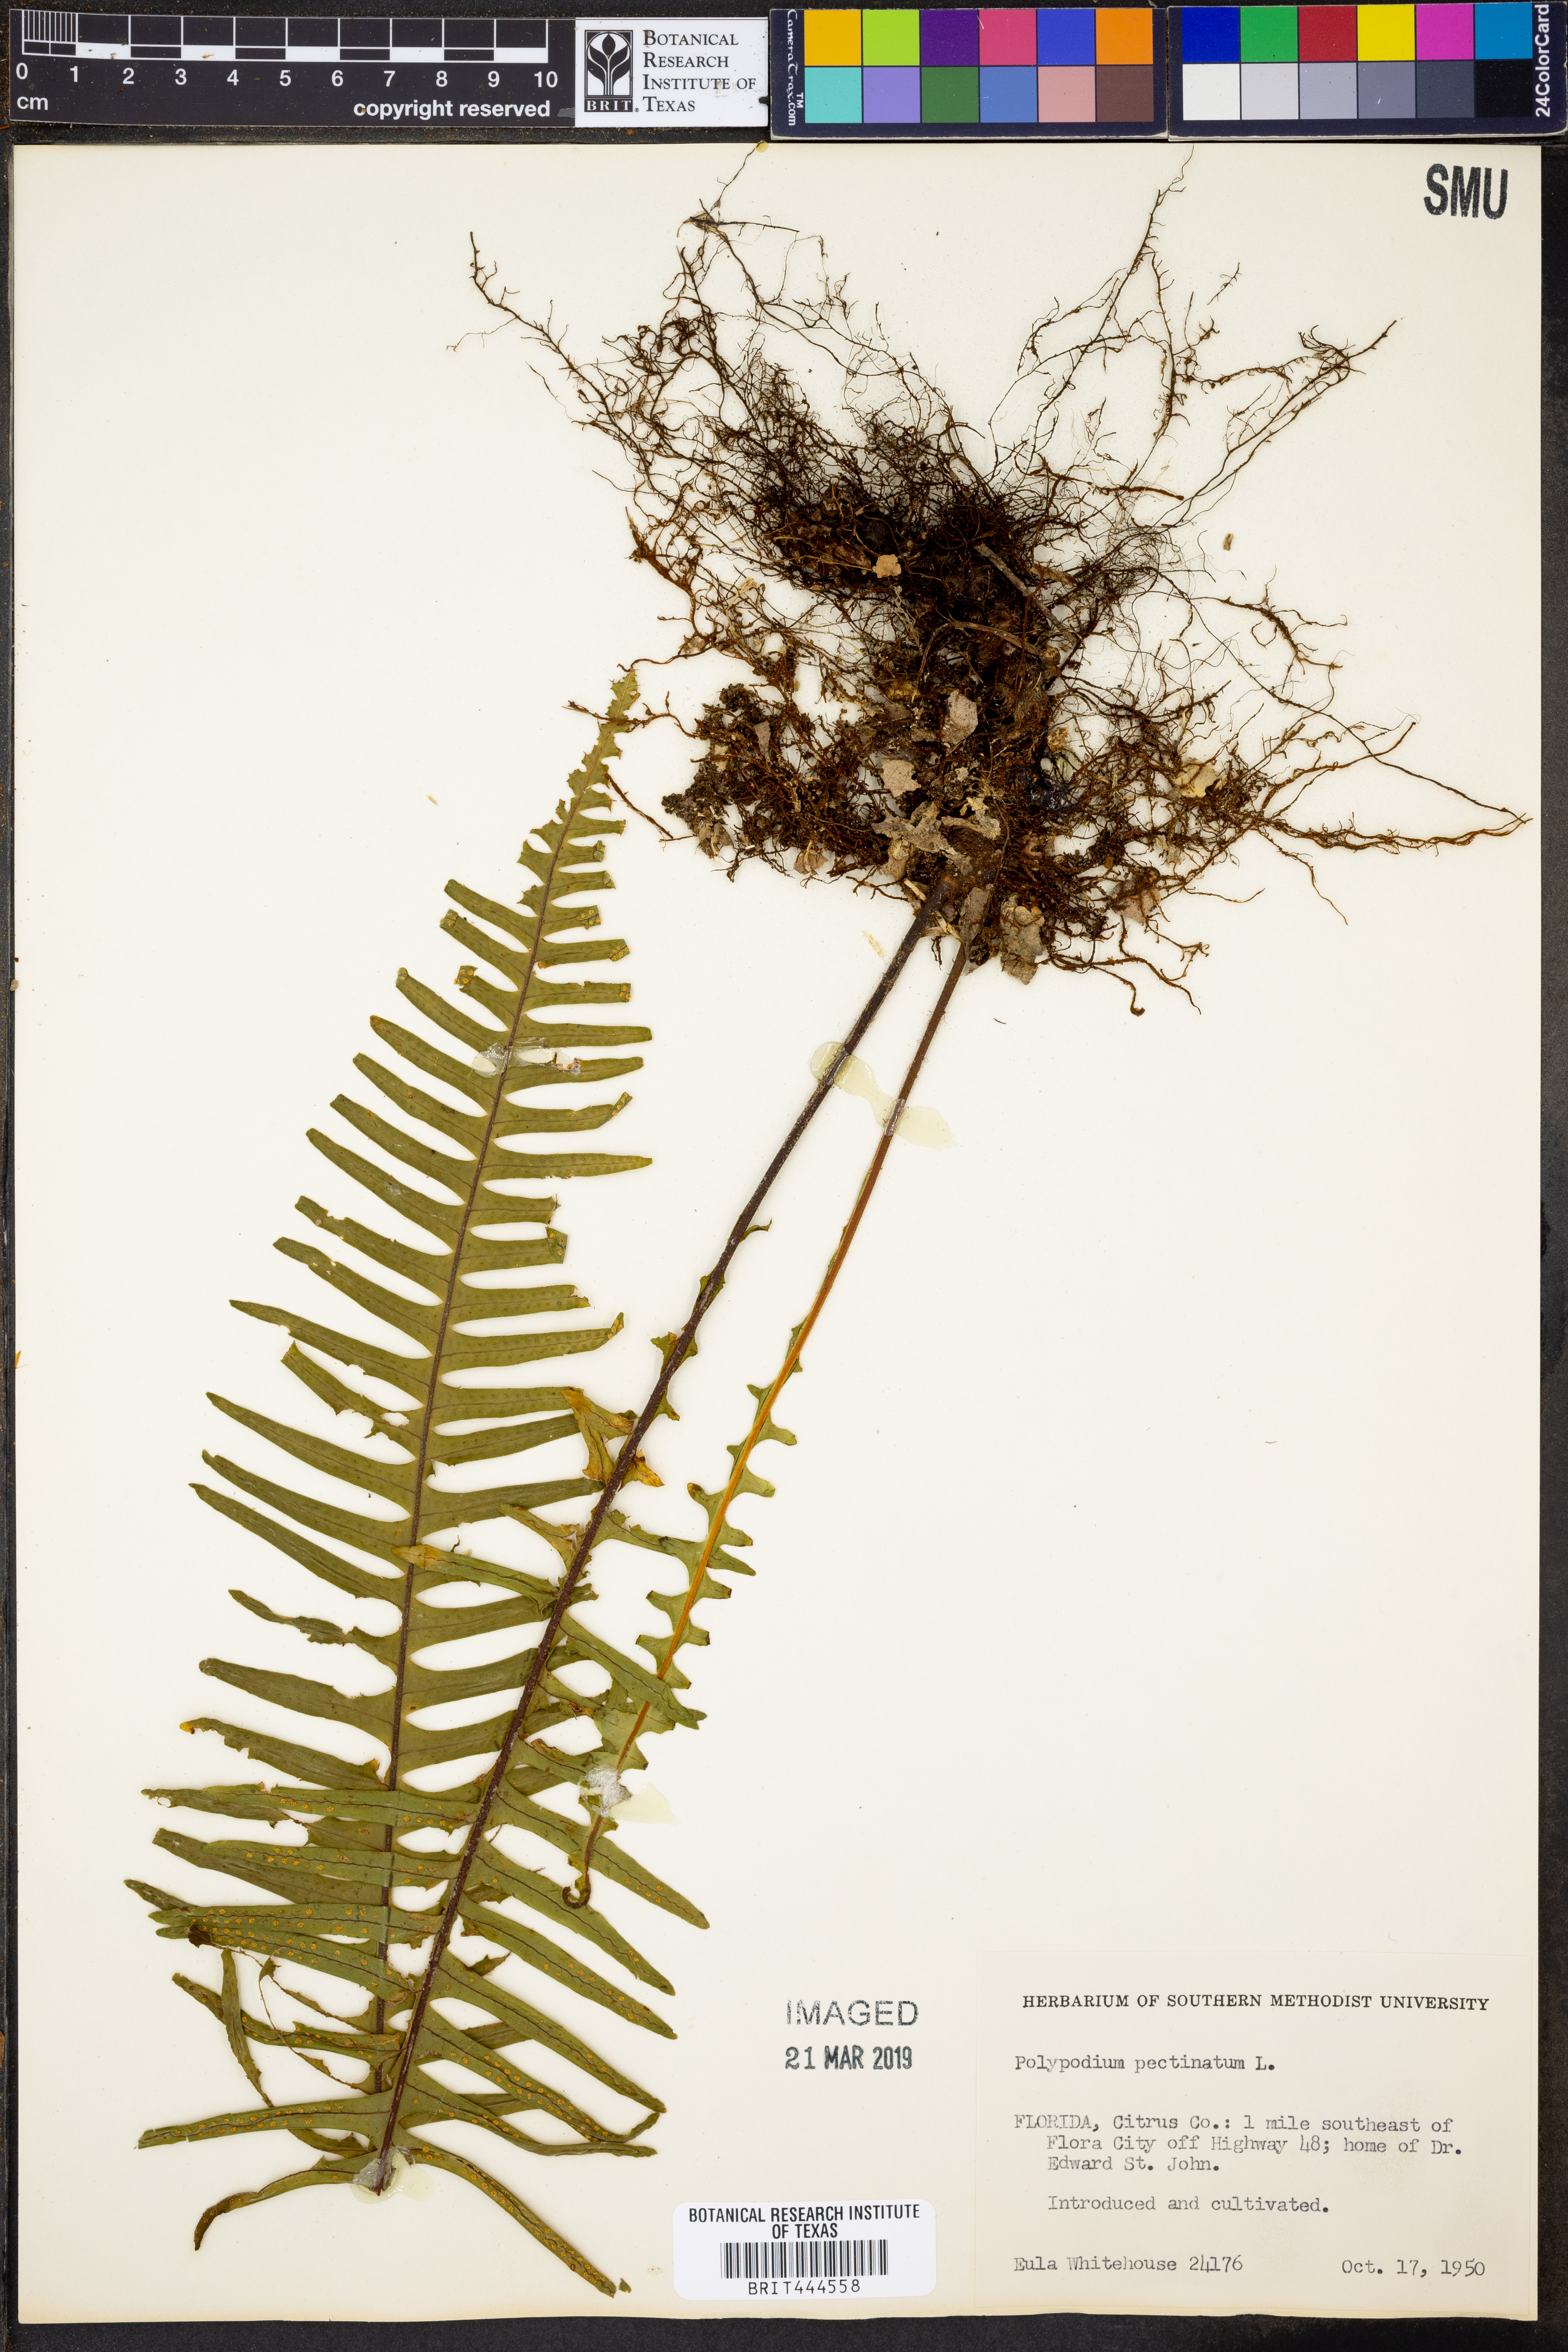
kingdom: Plantae
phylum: Tracheophyta
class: Polypodiopsida
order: Polypodiales
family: Polypodiaceae
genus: Pecluma
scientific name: Pecluma pectinata
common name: Msasa fern
